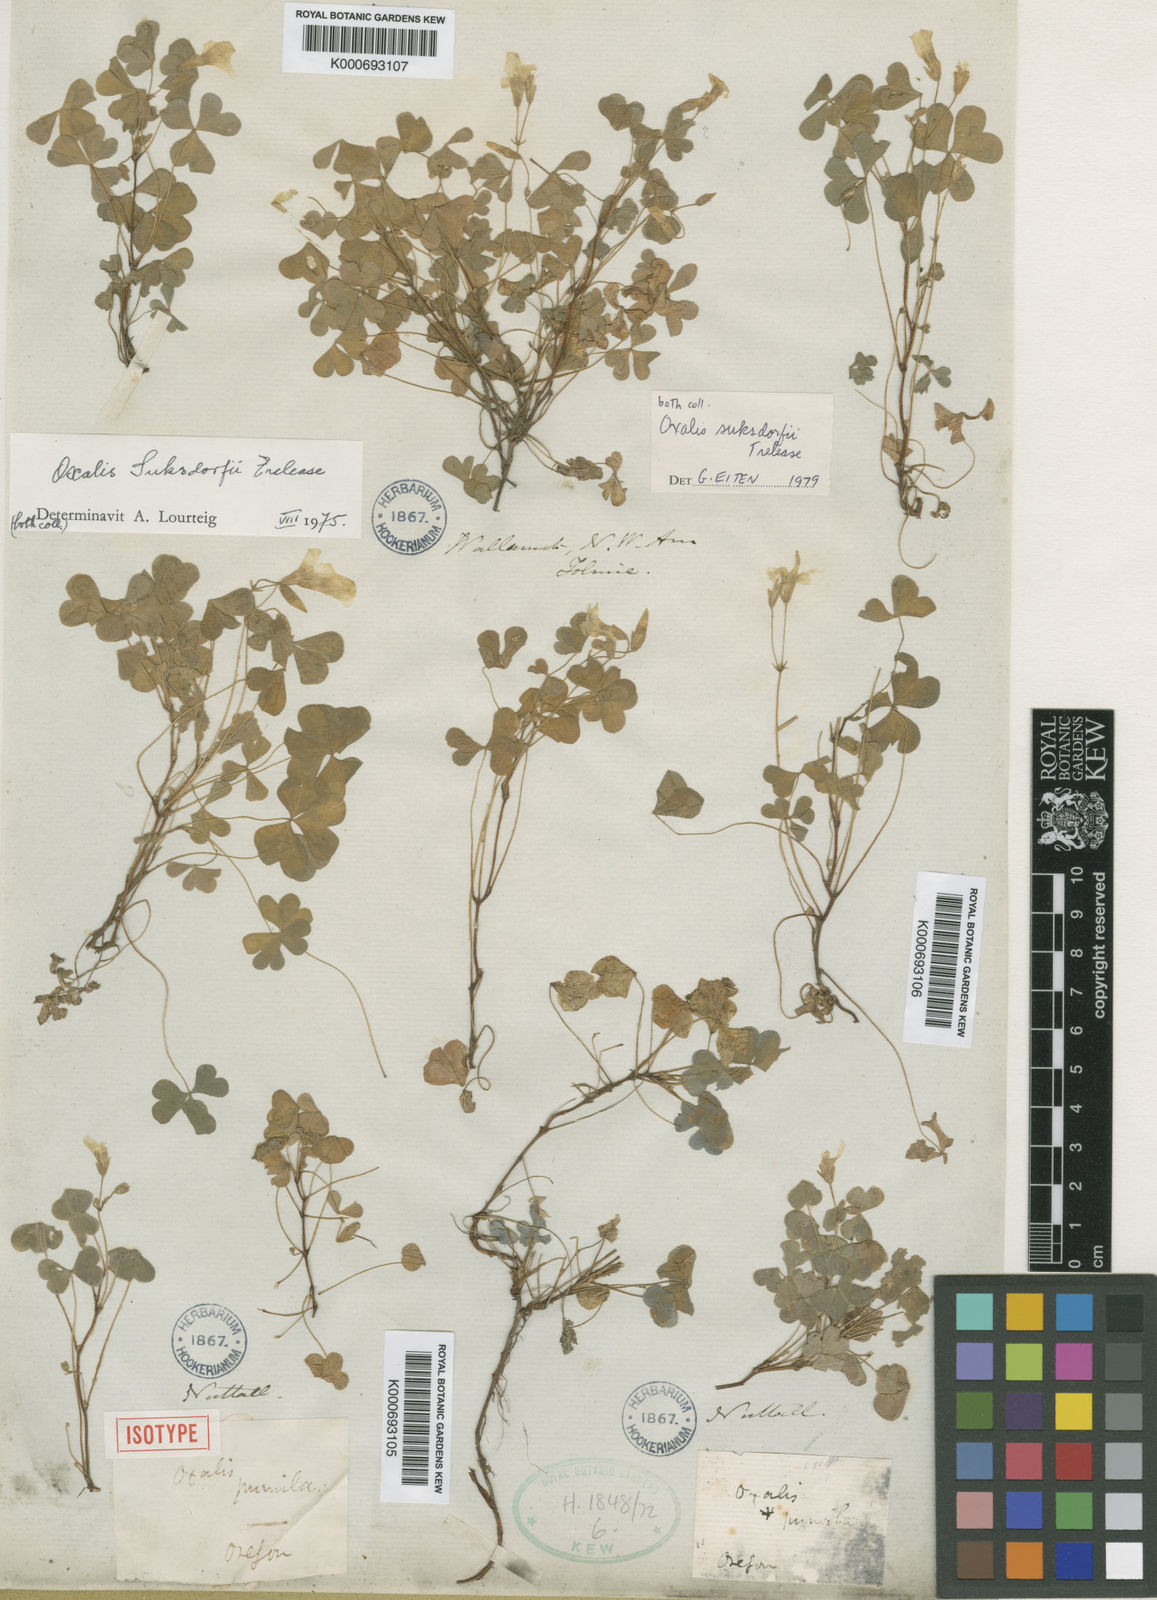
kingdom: Plantae
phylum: Tracheophyta
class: Magnoliopsida
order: Oxalidales
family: Oxalidaceae
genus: Oxalis
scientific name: Oxalis suksdorfii
